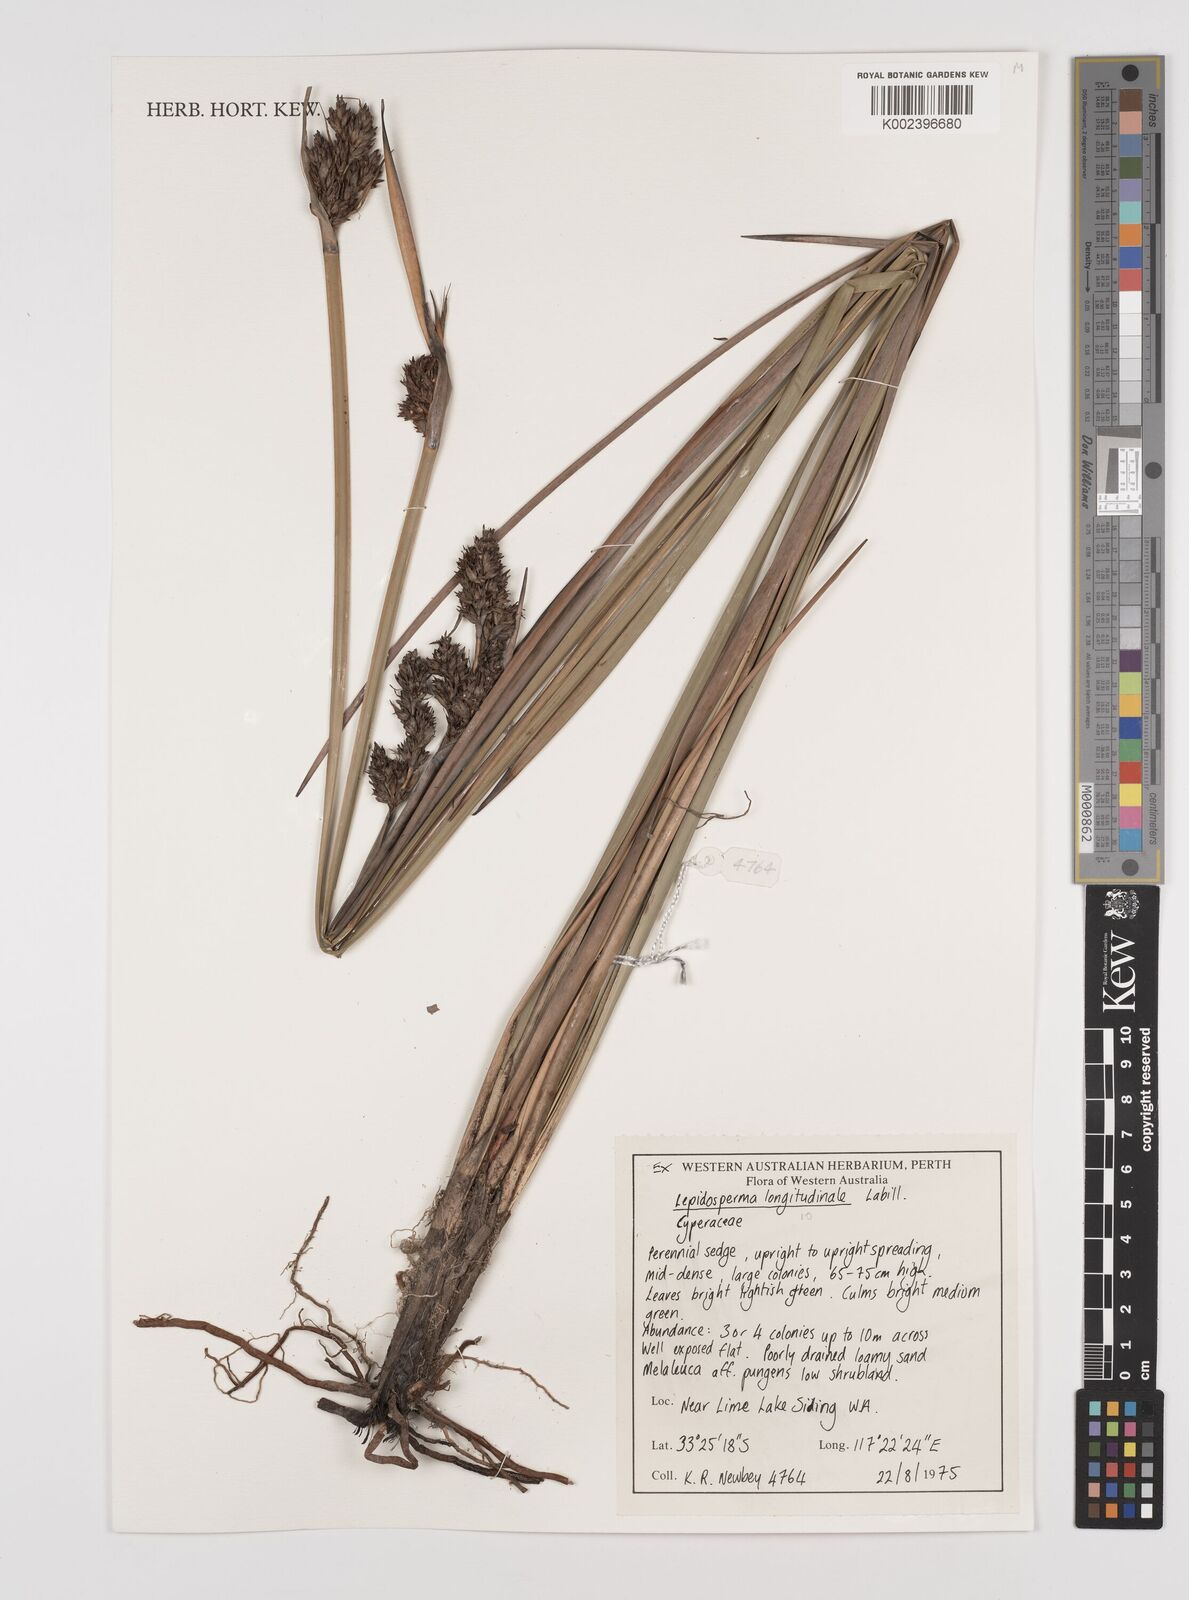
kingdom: Plantae
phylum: Tracheophyta
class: Liliopsida
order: Poales
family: Cyperaceae
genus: Lepidosperma
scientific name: Lepidosperma longitudinale
